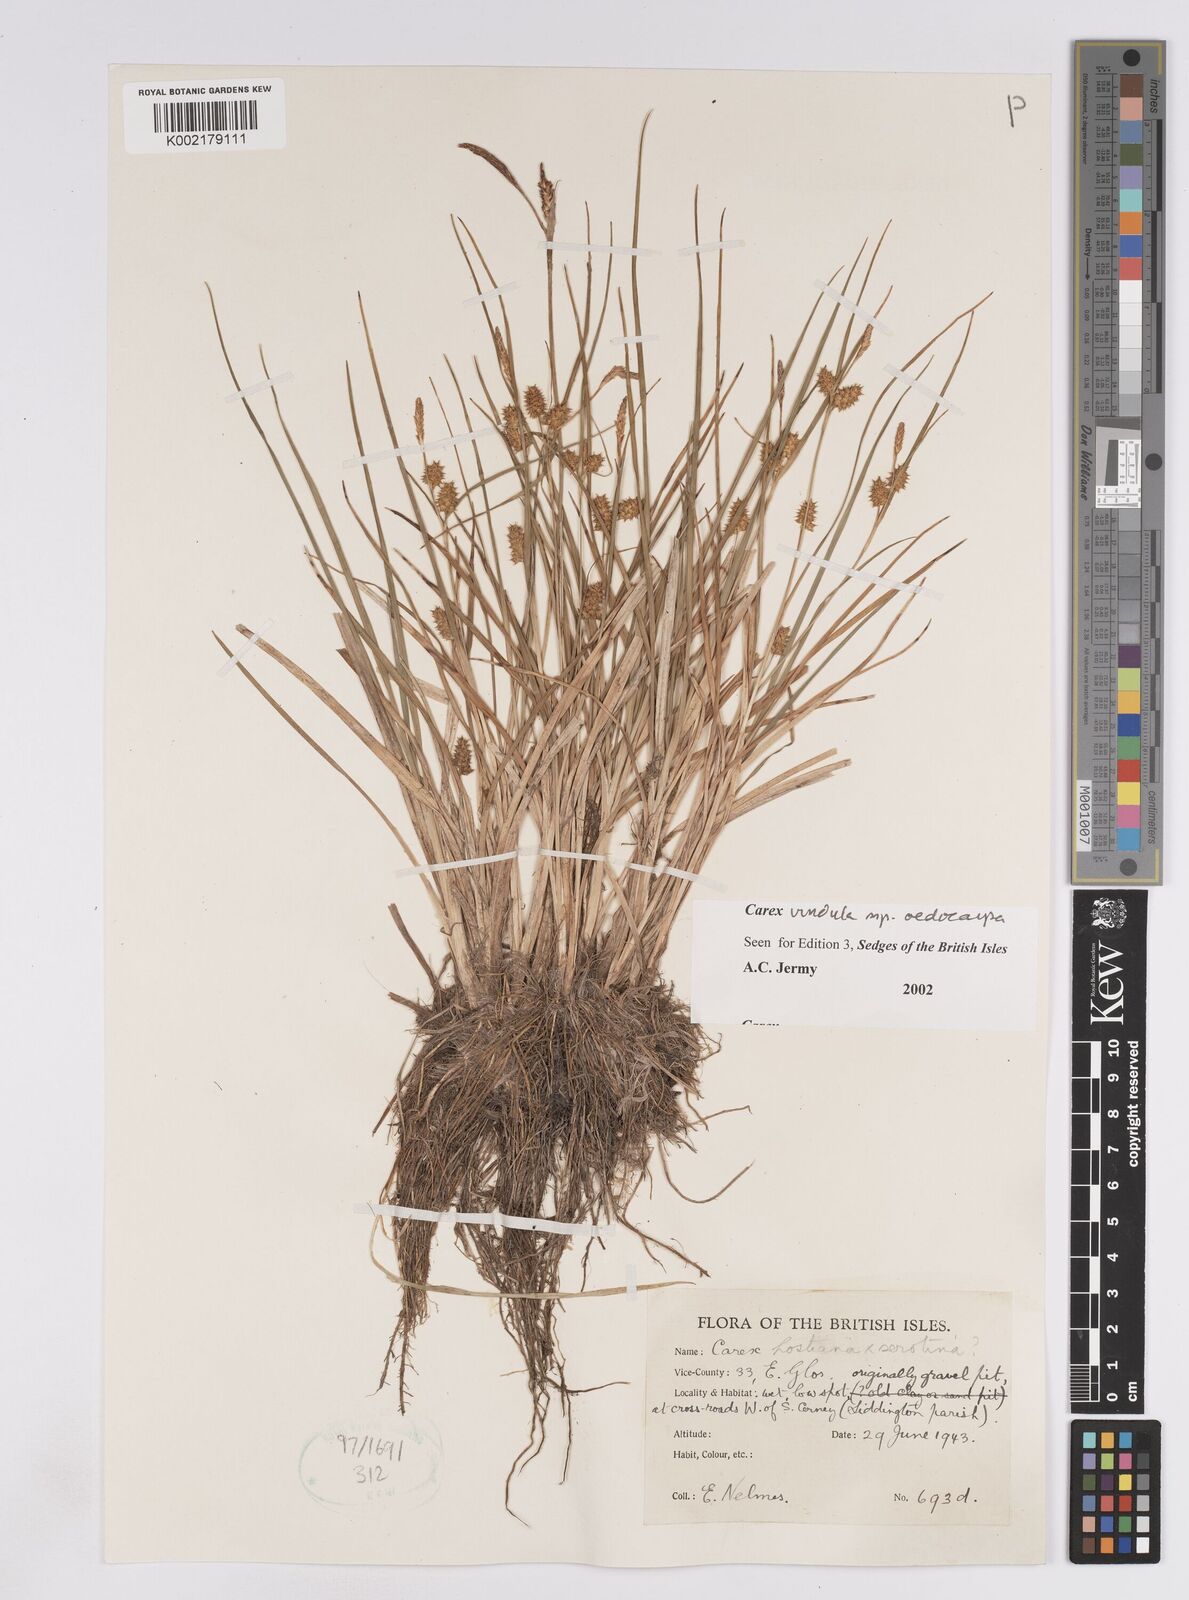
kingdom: Plantae
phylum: Tracheophyta
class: Liliopsida
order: Poales
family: Cyperaceae
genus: Carex
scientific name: Carex demissa
